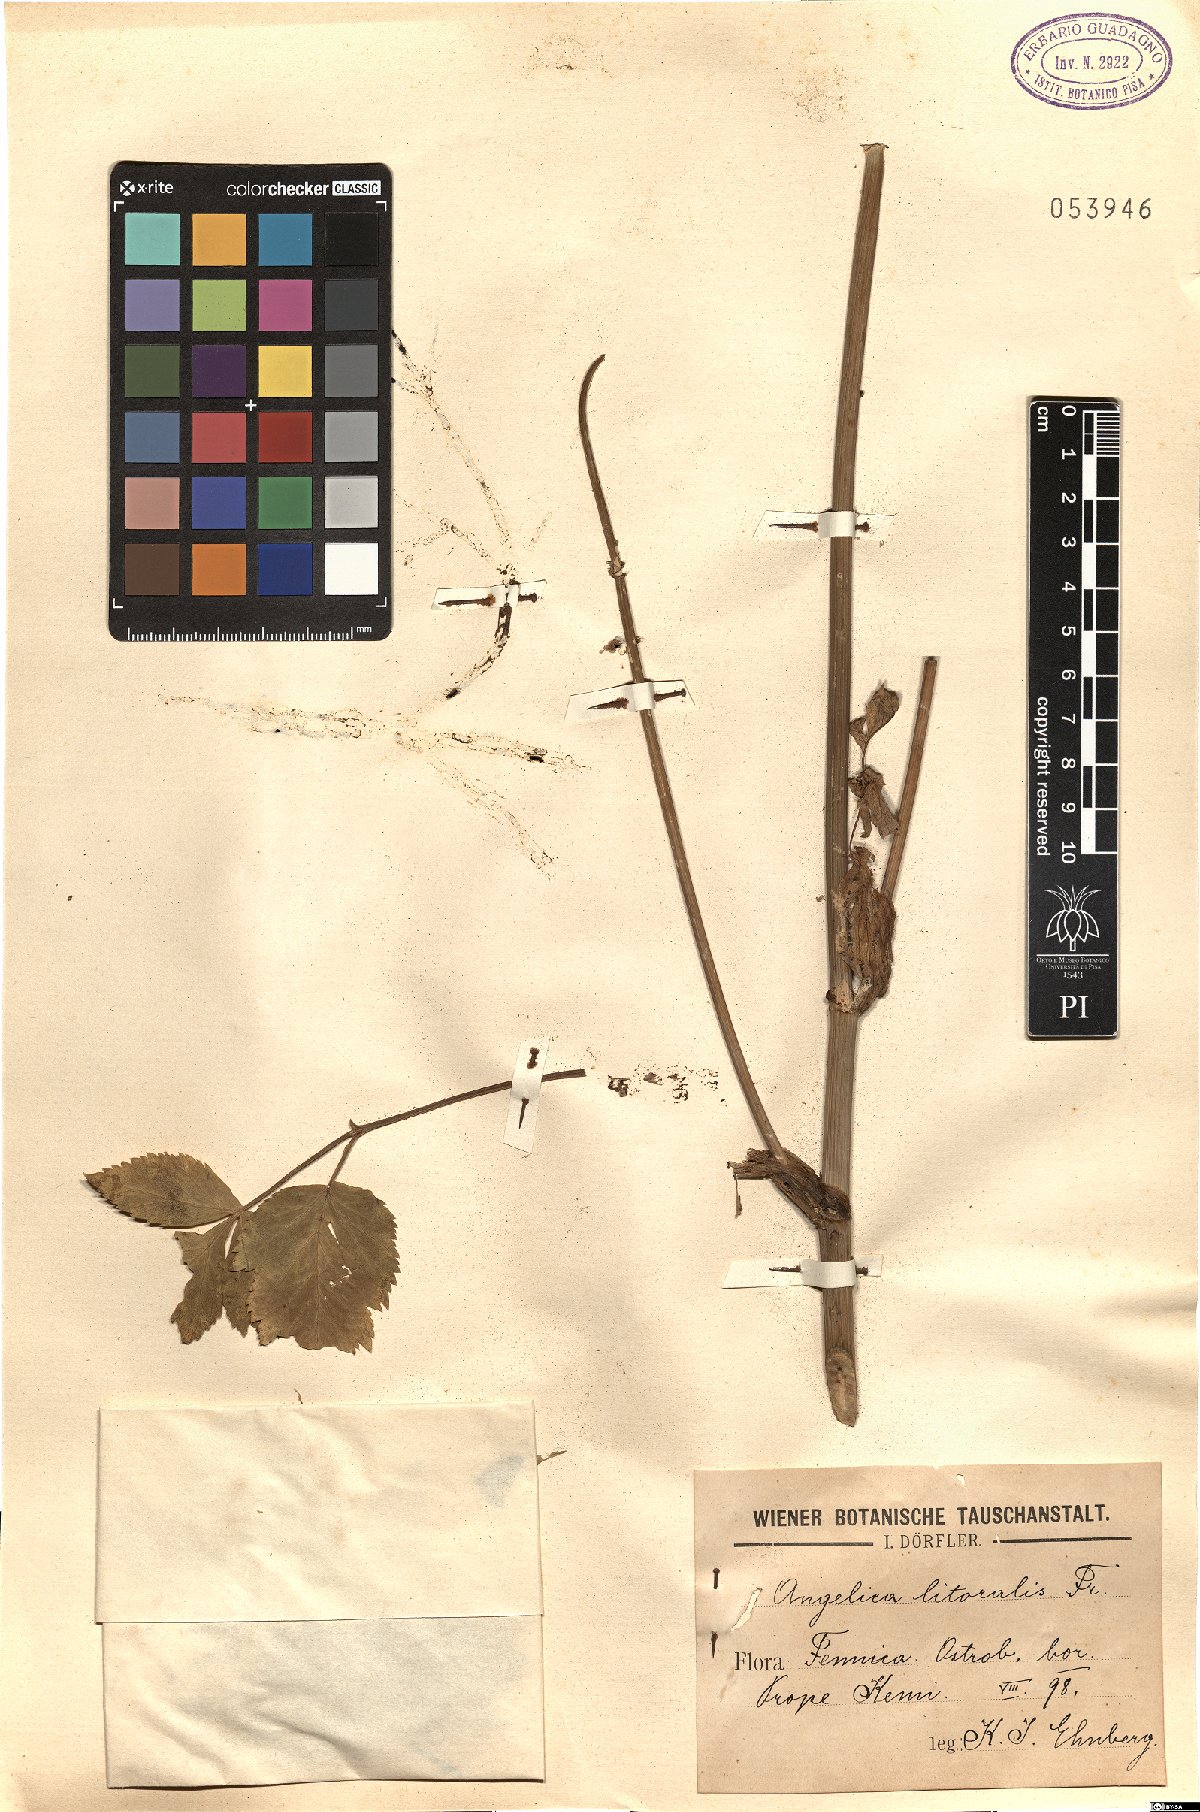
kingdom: Plantae
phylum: Tracheophyta
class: Magnoliopsida
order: Apiales
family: Apiaceae
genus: Angelica
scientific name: Angelica archangelica
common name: Garden angelica
